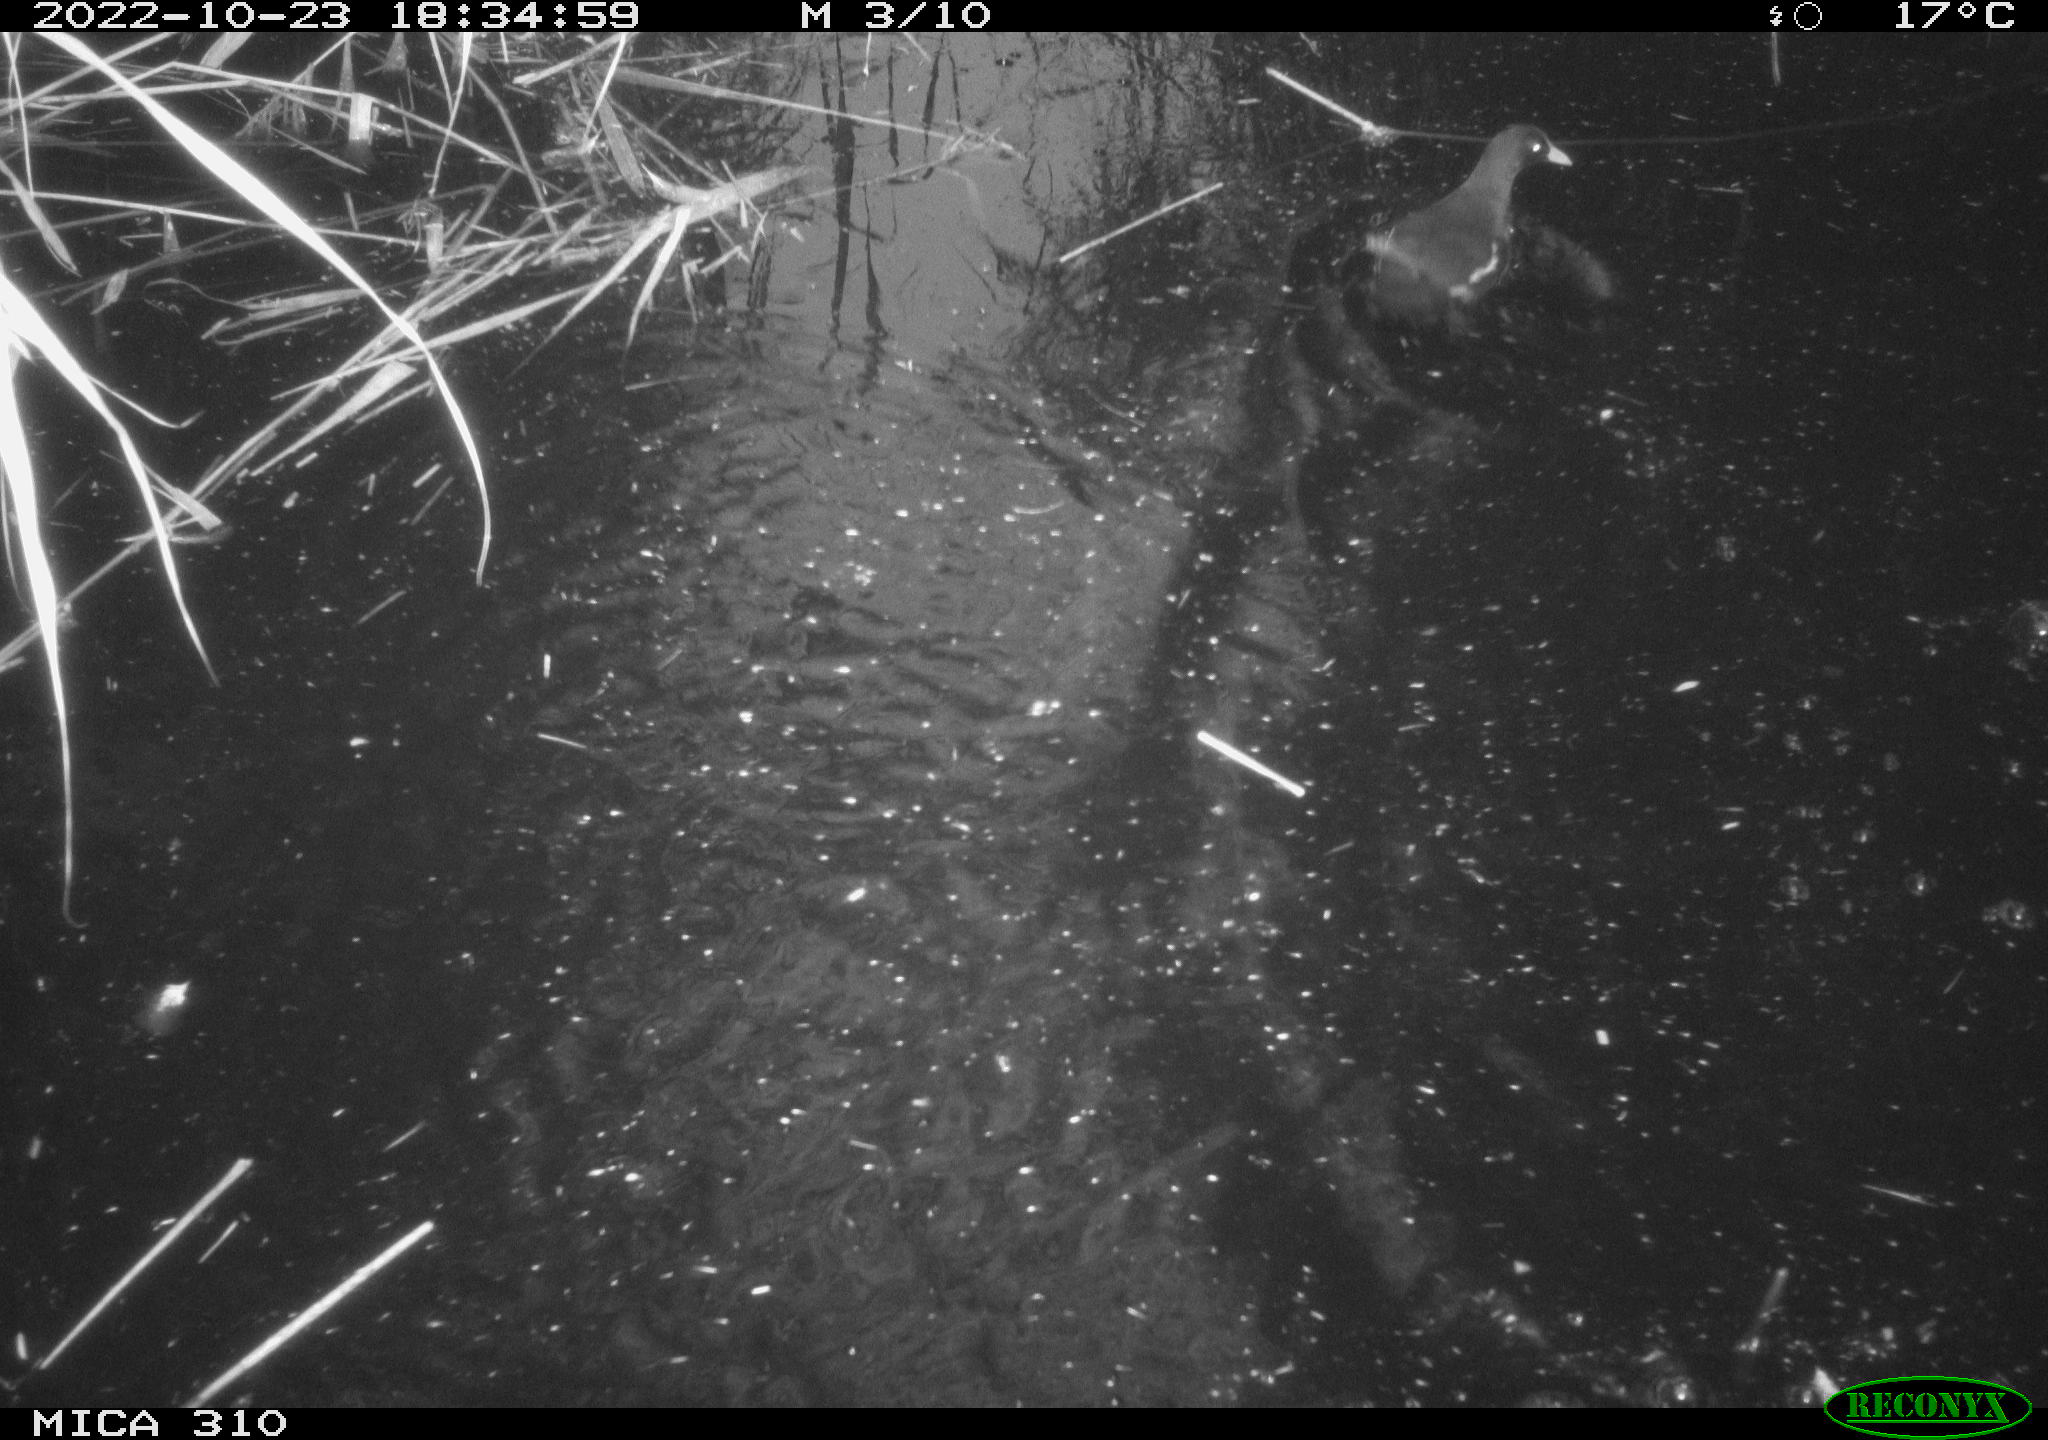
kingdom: Animalia
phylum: Chordata
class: Aves
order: Gruiformes
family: Rallidae
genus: Gallinula
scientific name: Gallinula chloropus
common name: Common moorhen
